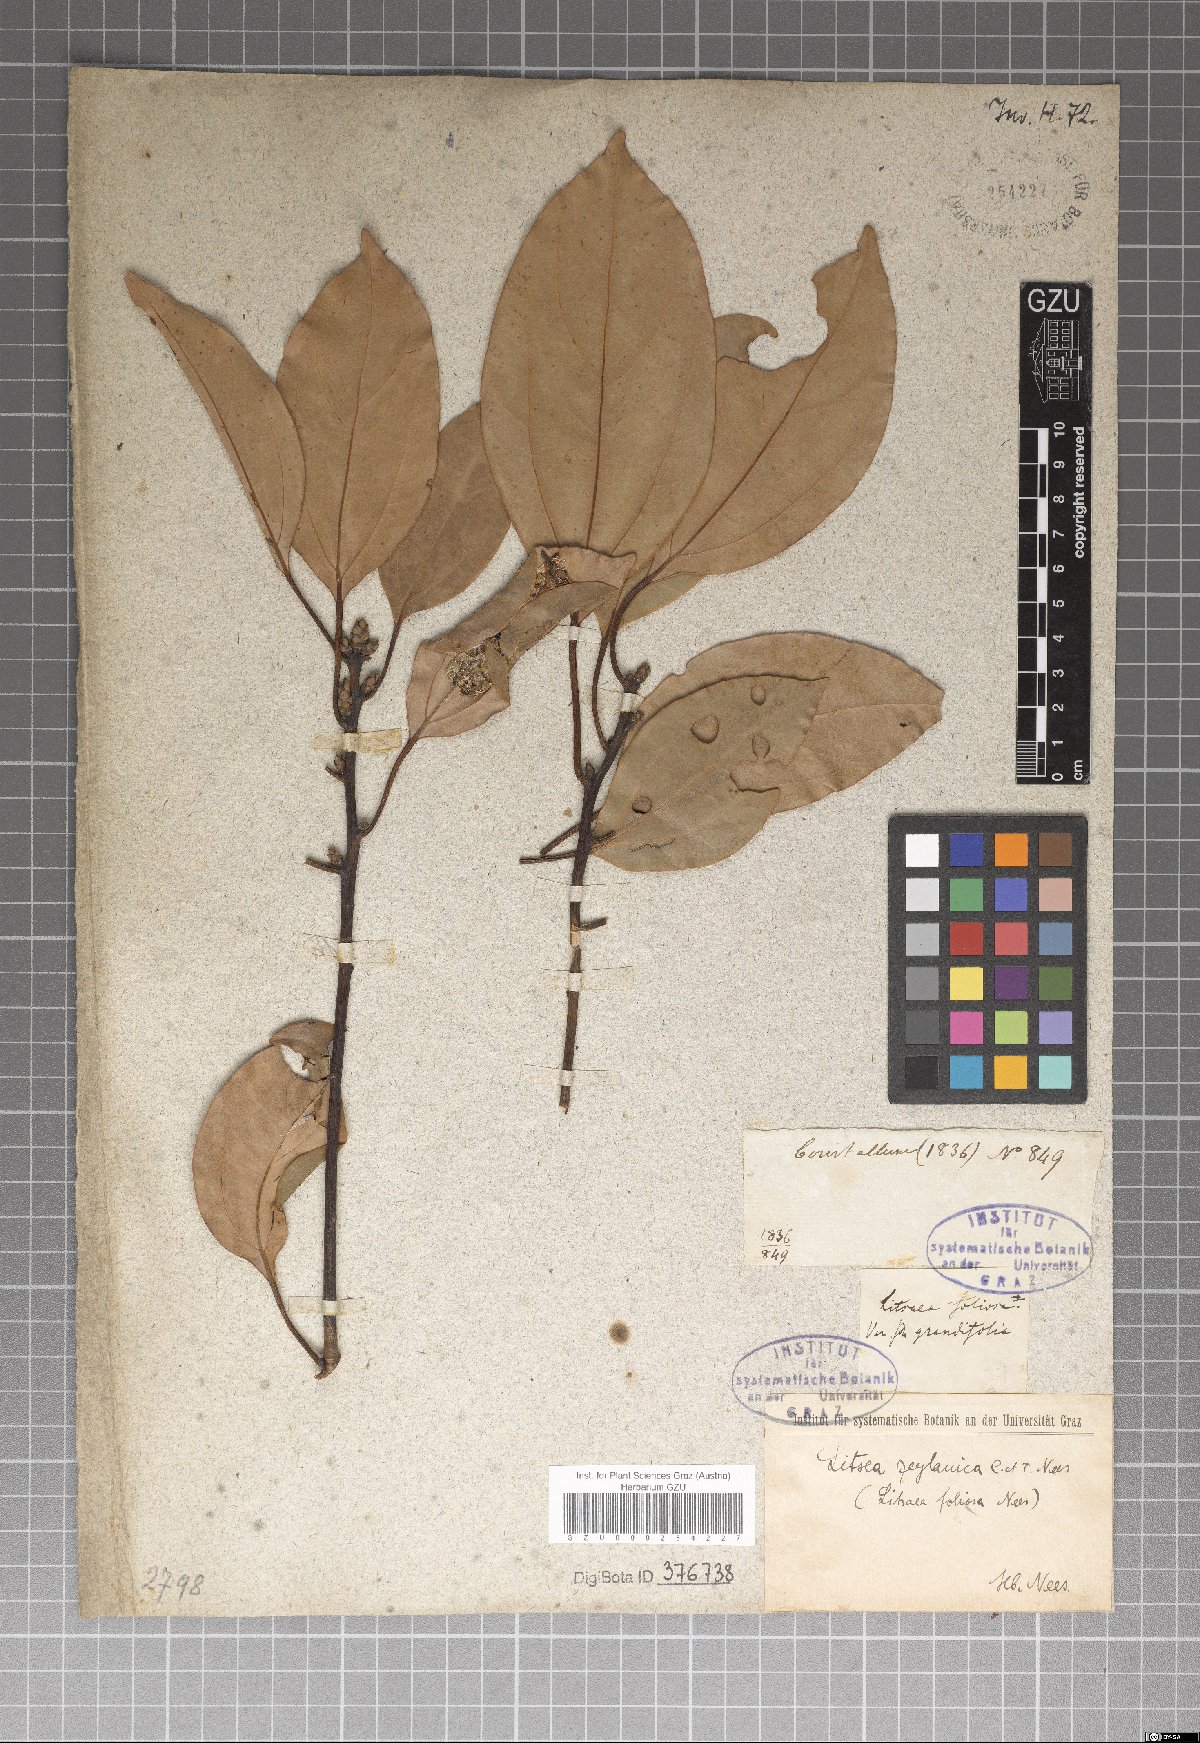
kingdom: Plantae
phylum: Tracheophyta
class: Magnoliopsida
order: Laurales
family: Lauraceae
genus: Neolitsea
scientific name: Neolitsea cassia
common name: Laurel
